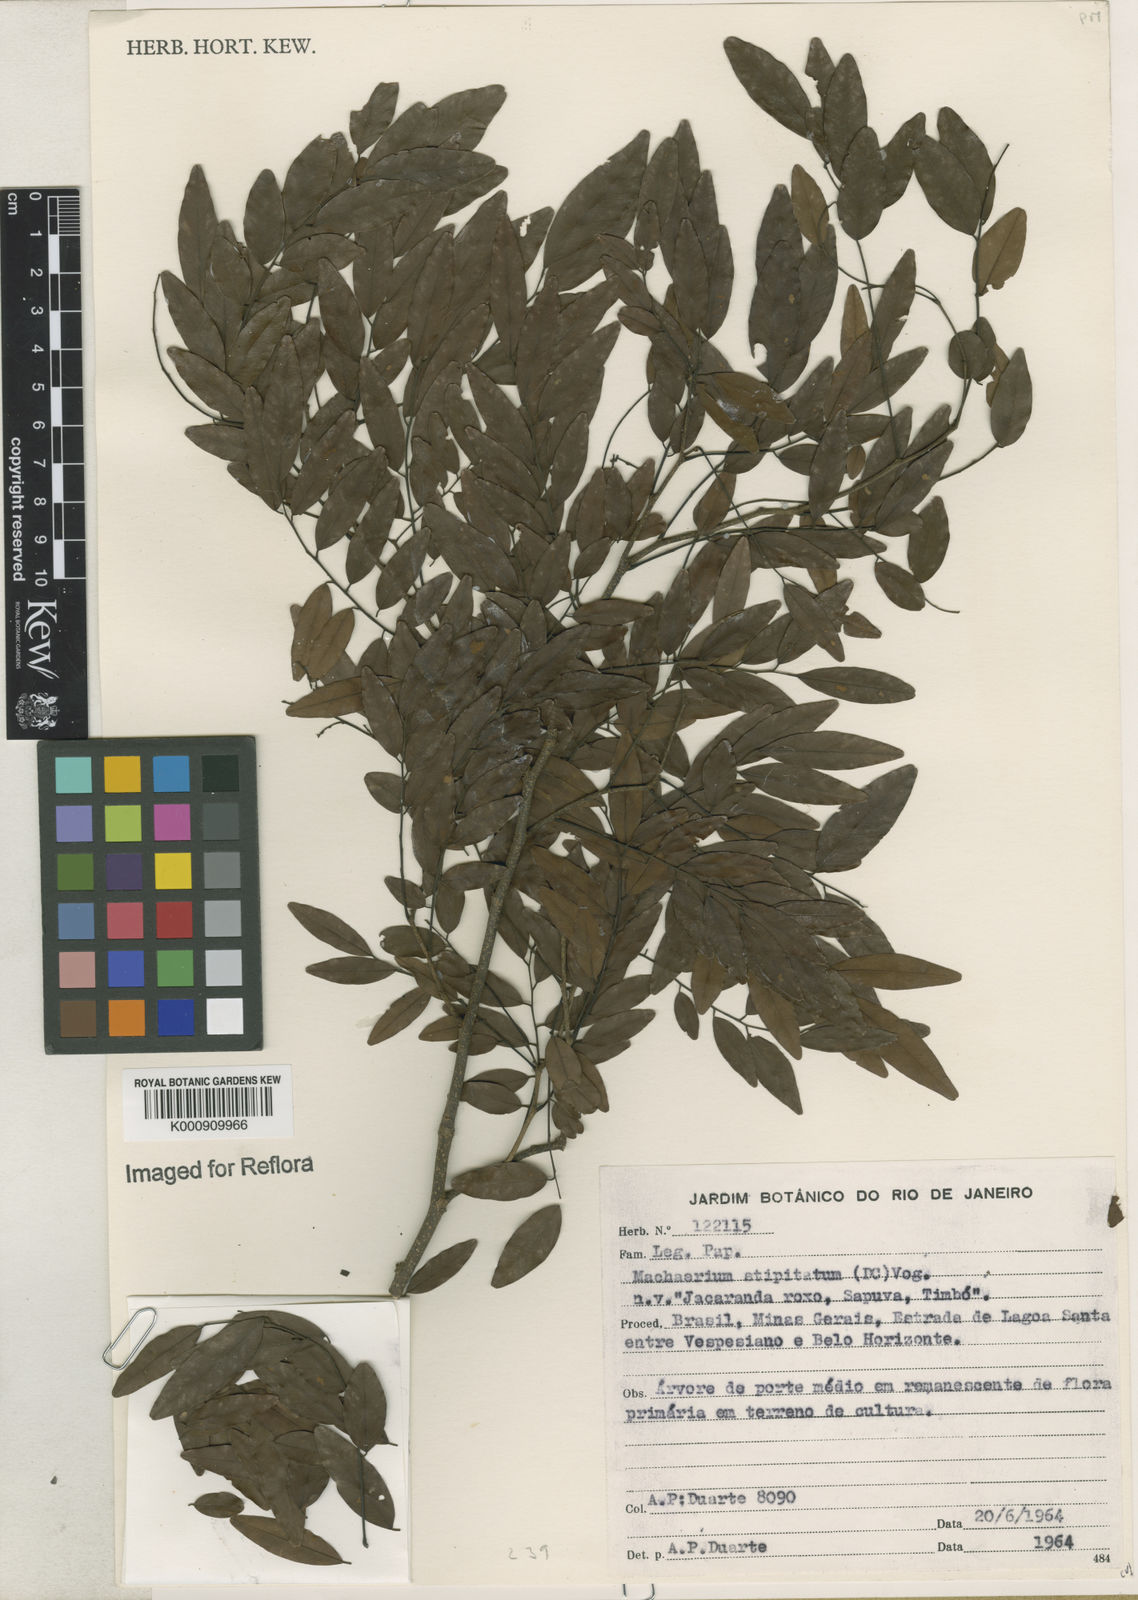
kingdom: Plantae
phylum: Tracheophyta
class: Magnoliopsida
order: Fabales
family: Fabaceae
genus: Machaerium
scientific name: Machaerium stipitatum
